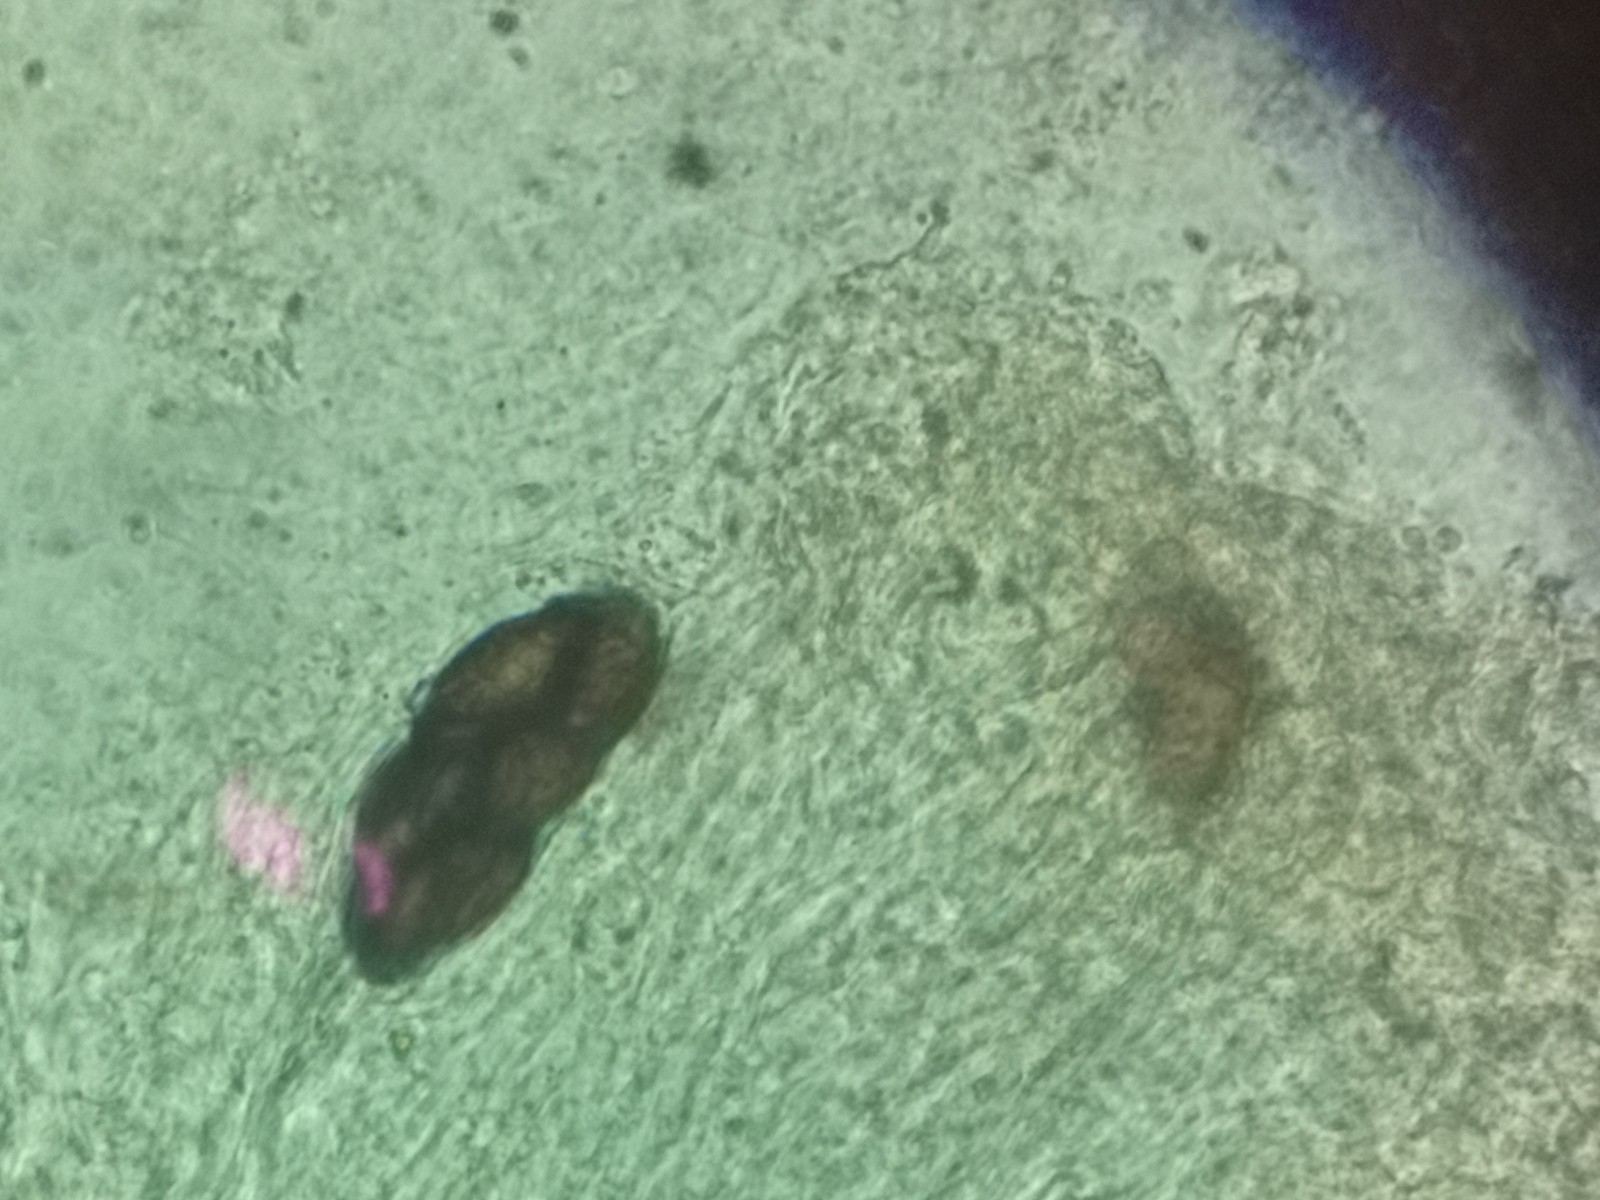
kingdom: Fungi
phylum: Ascomycota
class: Pezizomycetes
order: Pezizales
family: Ascobolaceae
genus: Saccobolus
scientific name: Saccobolus depauperatus
